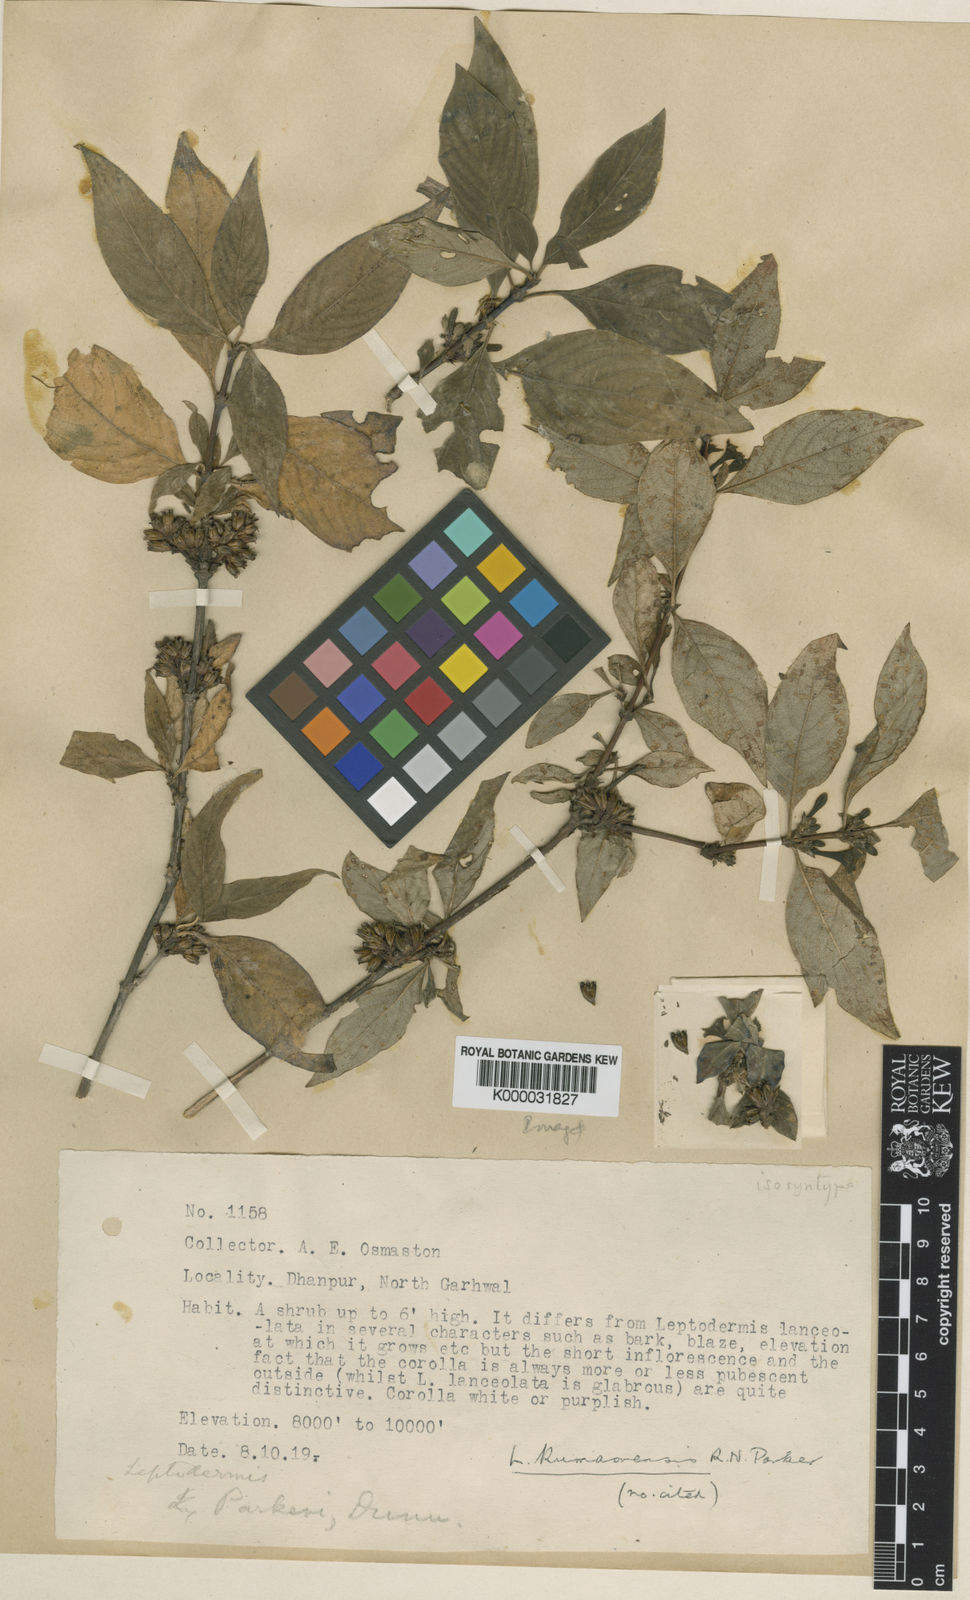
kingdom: Plantae
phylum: Tracheophyta
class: Magnoliopsida
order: Gentianales
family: Rubiaceae
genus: Leptodermis
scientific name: Leptodermis kumaonensis
